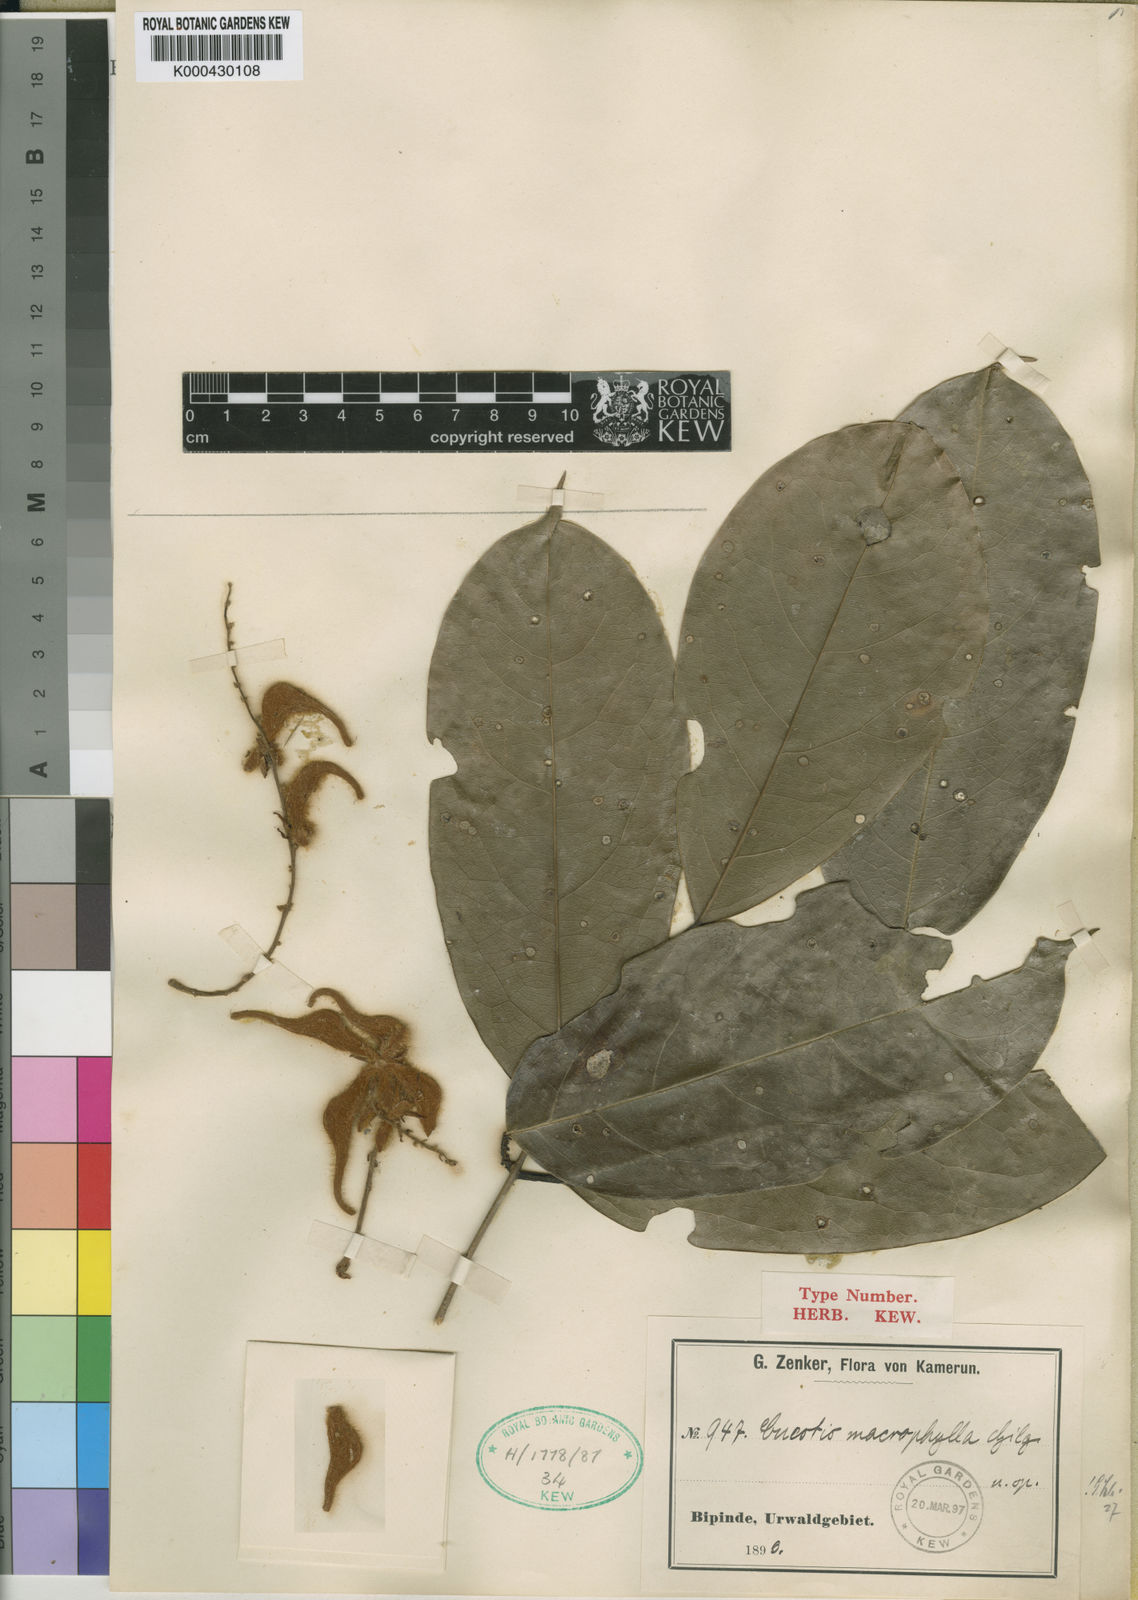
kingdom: Plantae
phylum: Tracheophyta
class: Magnoliopsida
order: Oxalidales
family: Connaraceae
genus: Cnestis
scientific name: Cnestis macrophylla
